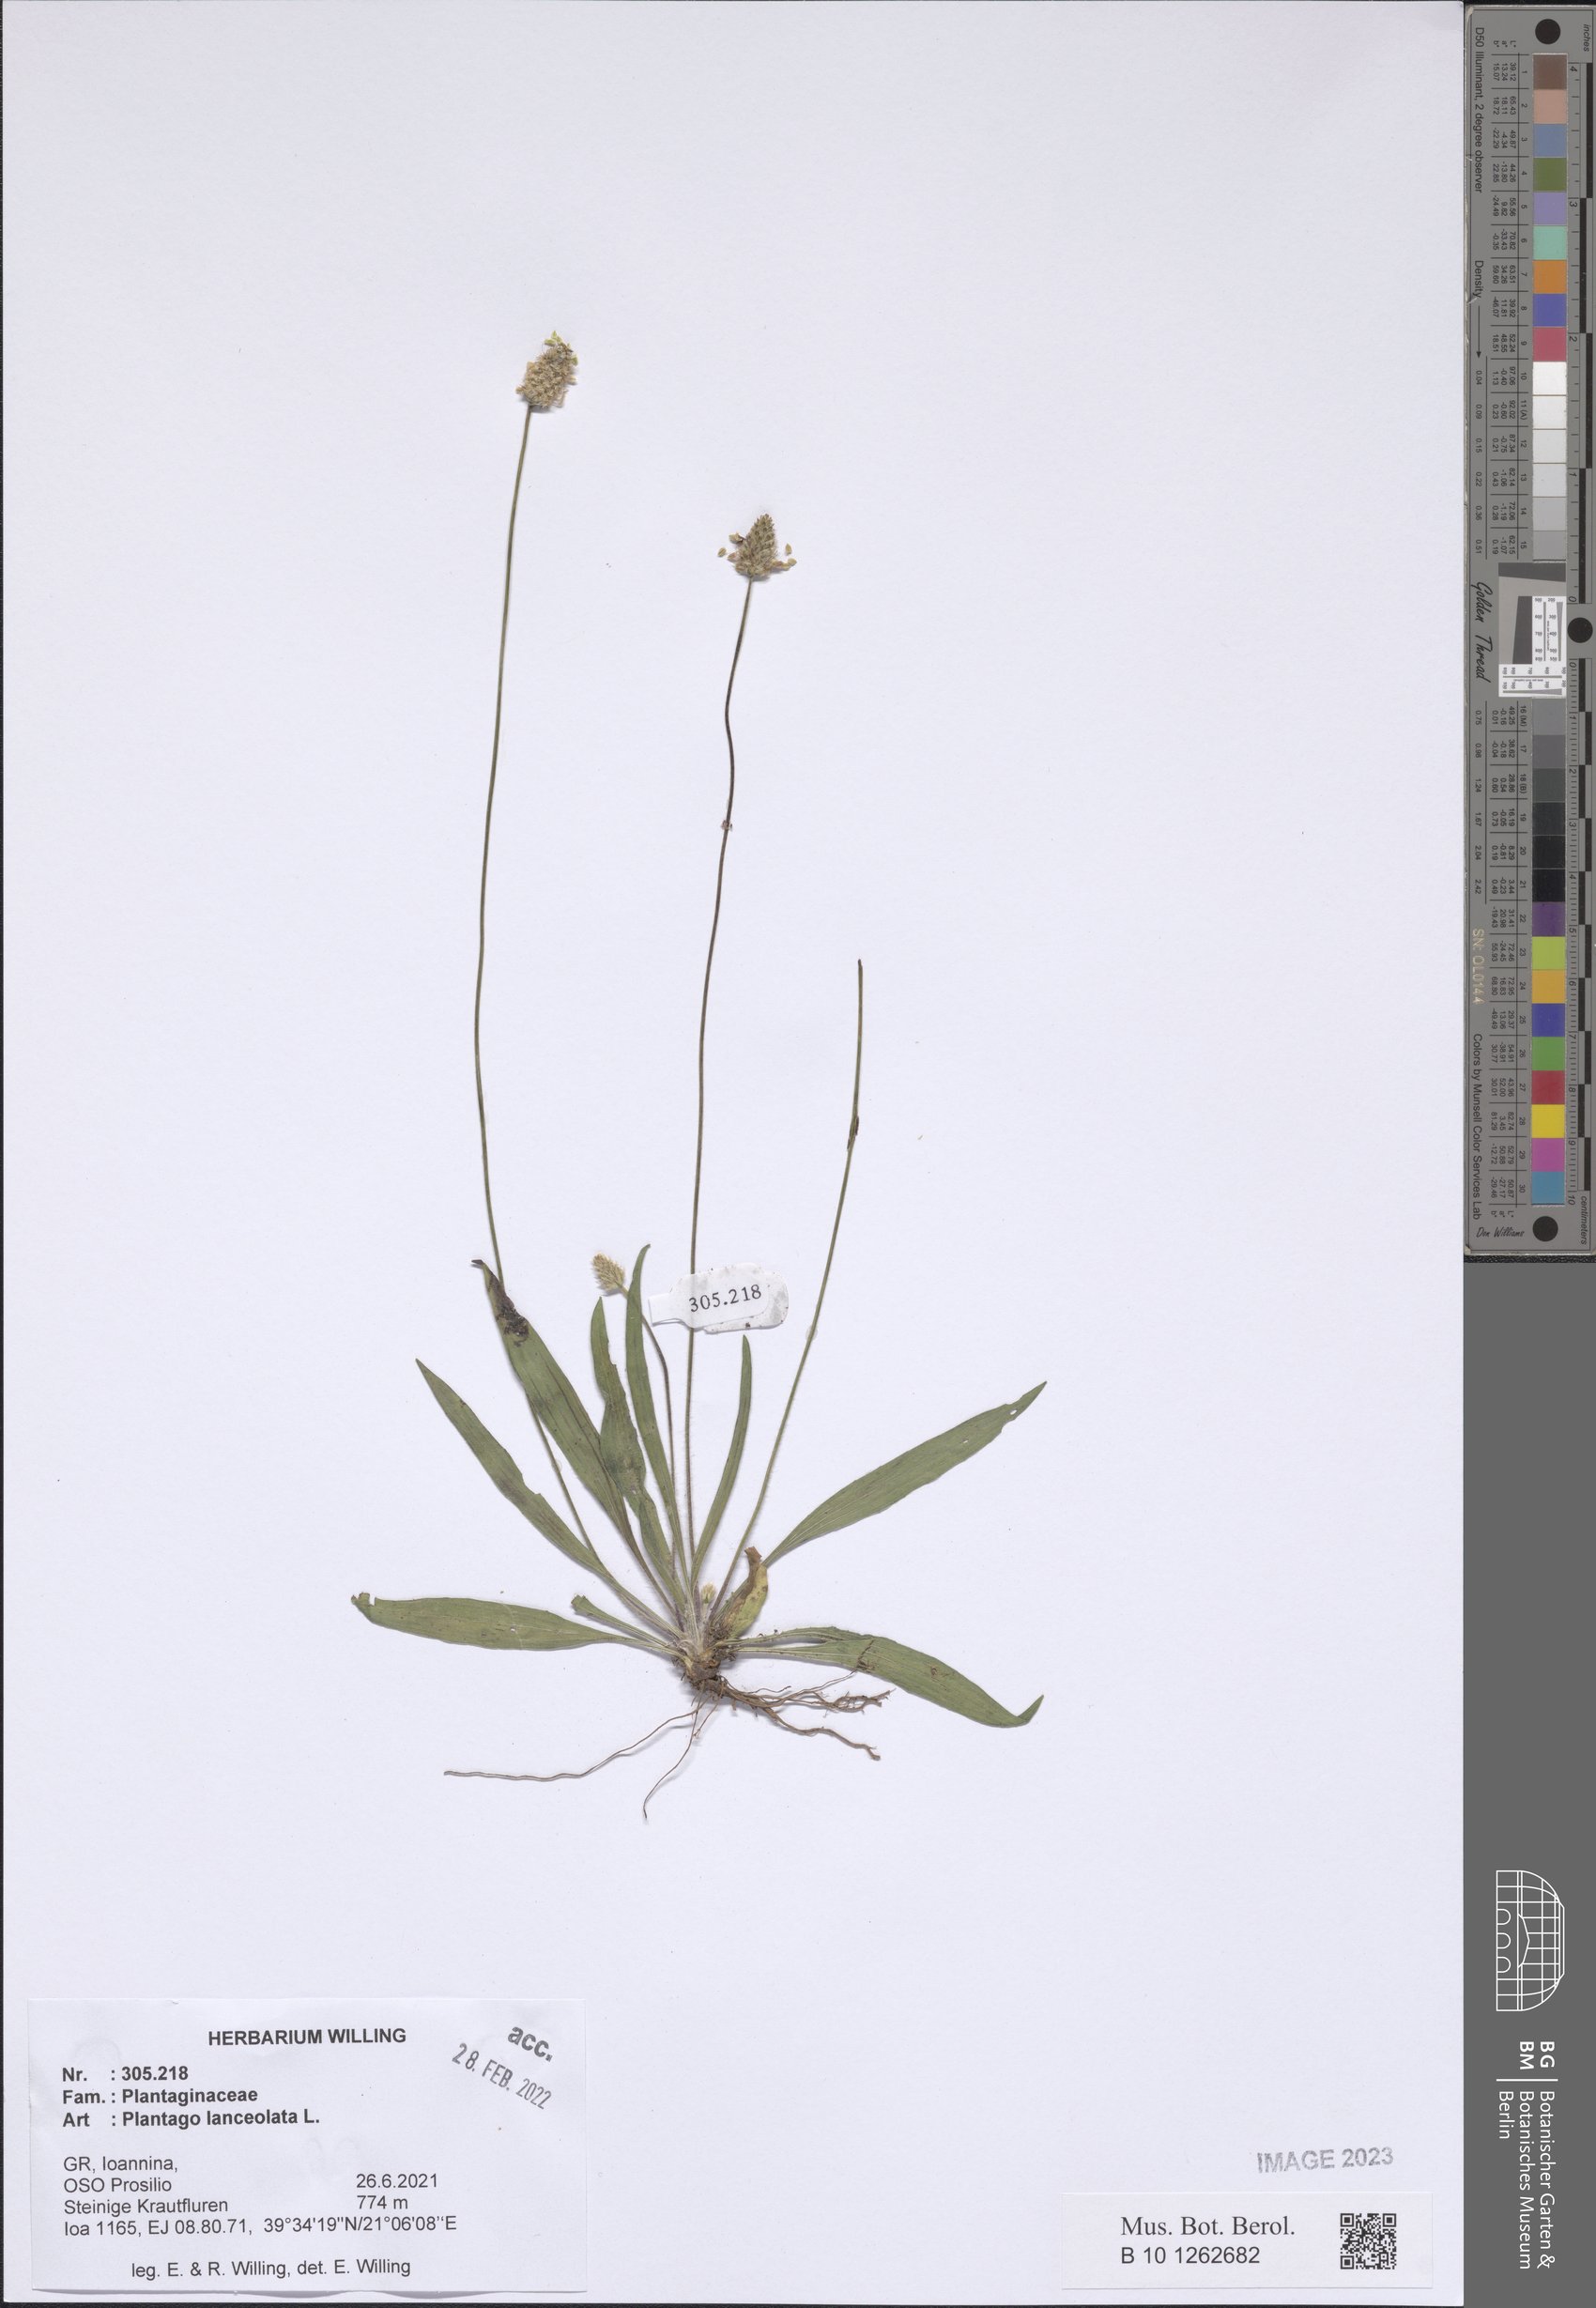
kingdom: Plantae
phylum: Tracheophyta
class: Magnoliopsida
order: Lamiales
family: Plantaginaceae
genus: Plantago
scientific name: Plantago lanceolata
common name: Ribwort plantain
